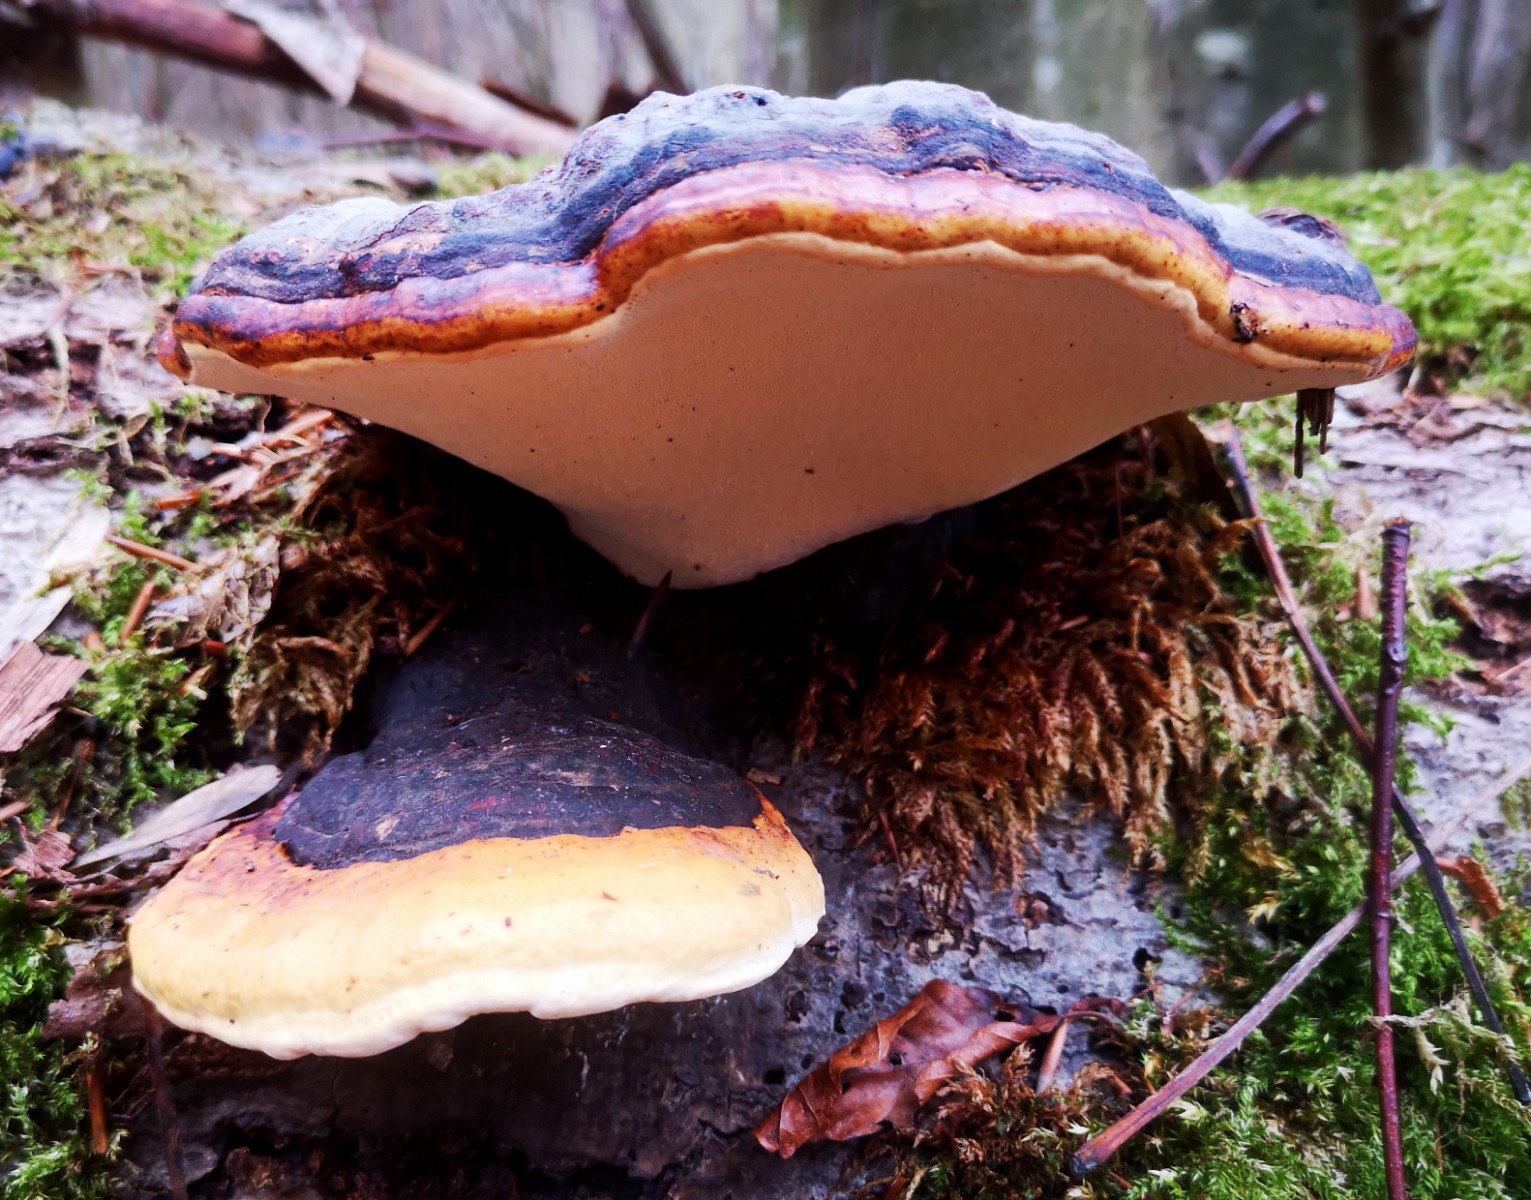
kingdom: Fungi
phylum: Basidiomycota
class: Agaricomycetes
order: Polyporales
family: Fomitopsidaceae
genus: Fomitopsis
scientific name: Fomitopsis pinicola
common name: randbæltet hovporesvamp
